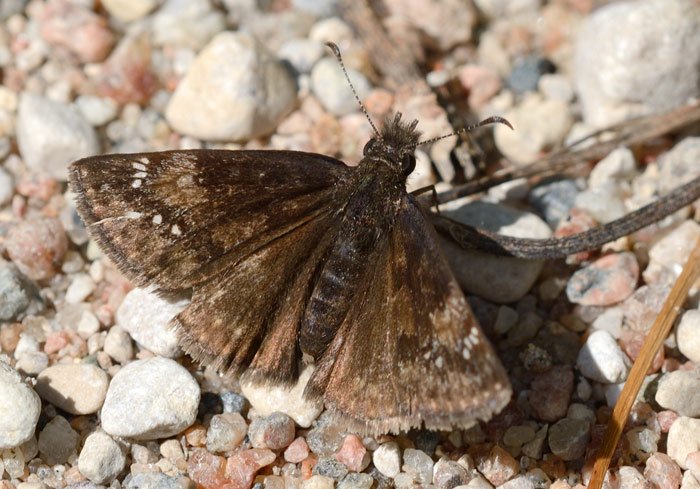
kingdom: Animalia
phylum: Arthropoda
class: Insecta
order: Lepidoptera
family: Hesperiidae
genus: Gesta
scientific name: Gesta
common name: Columbine Duskywing
